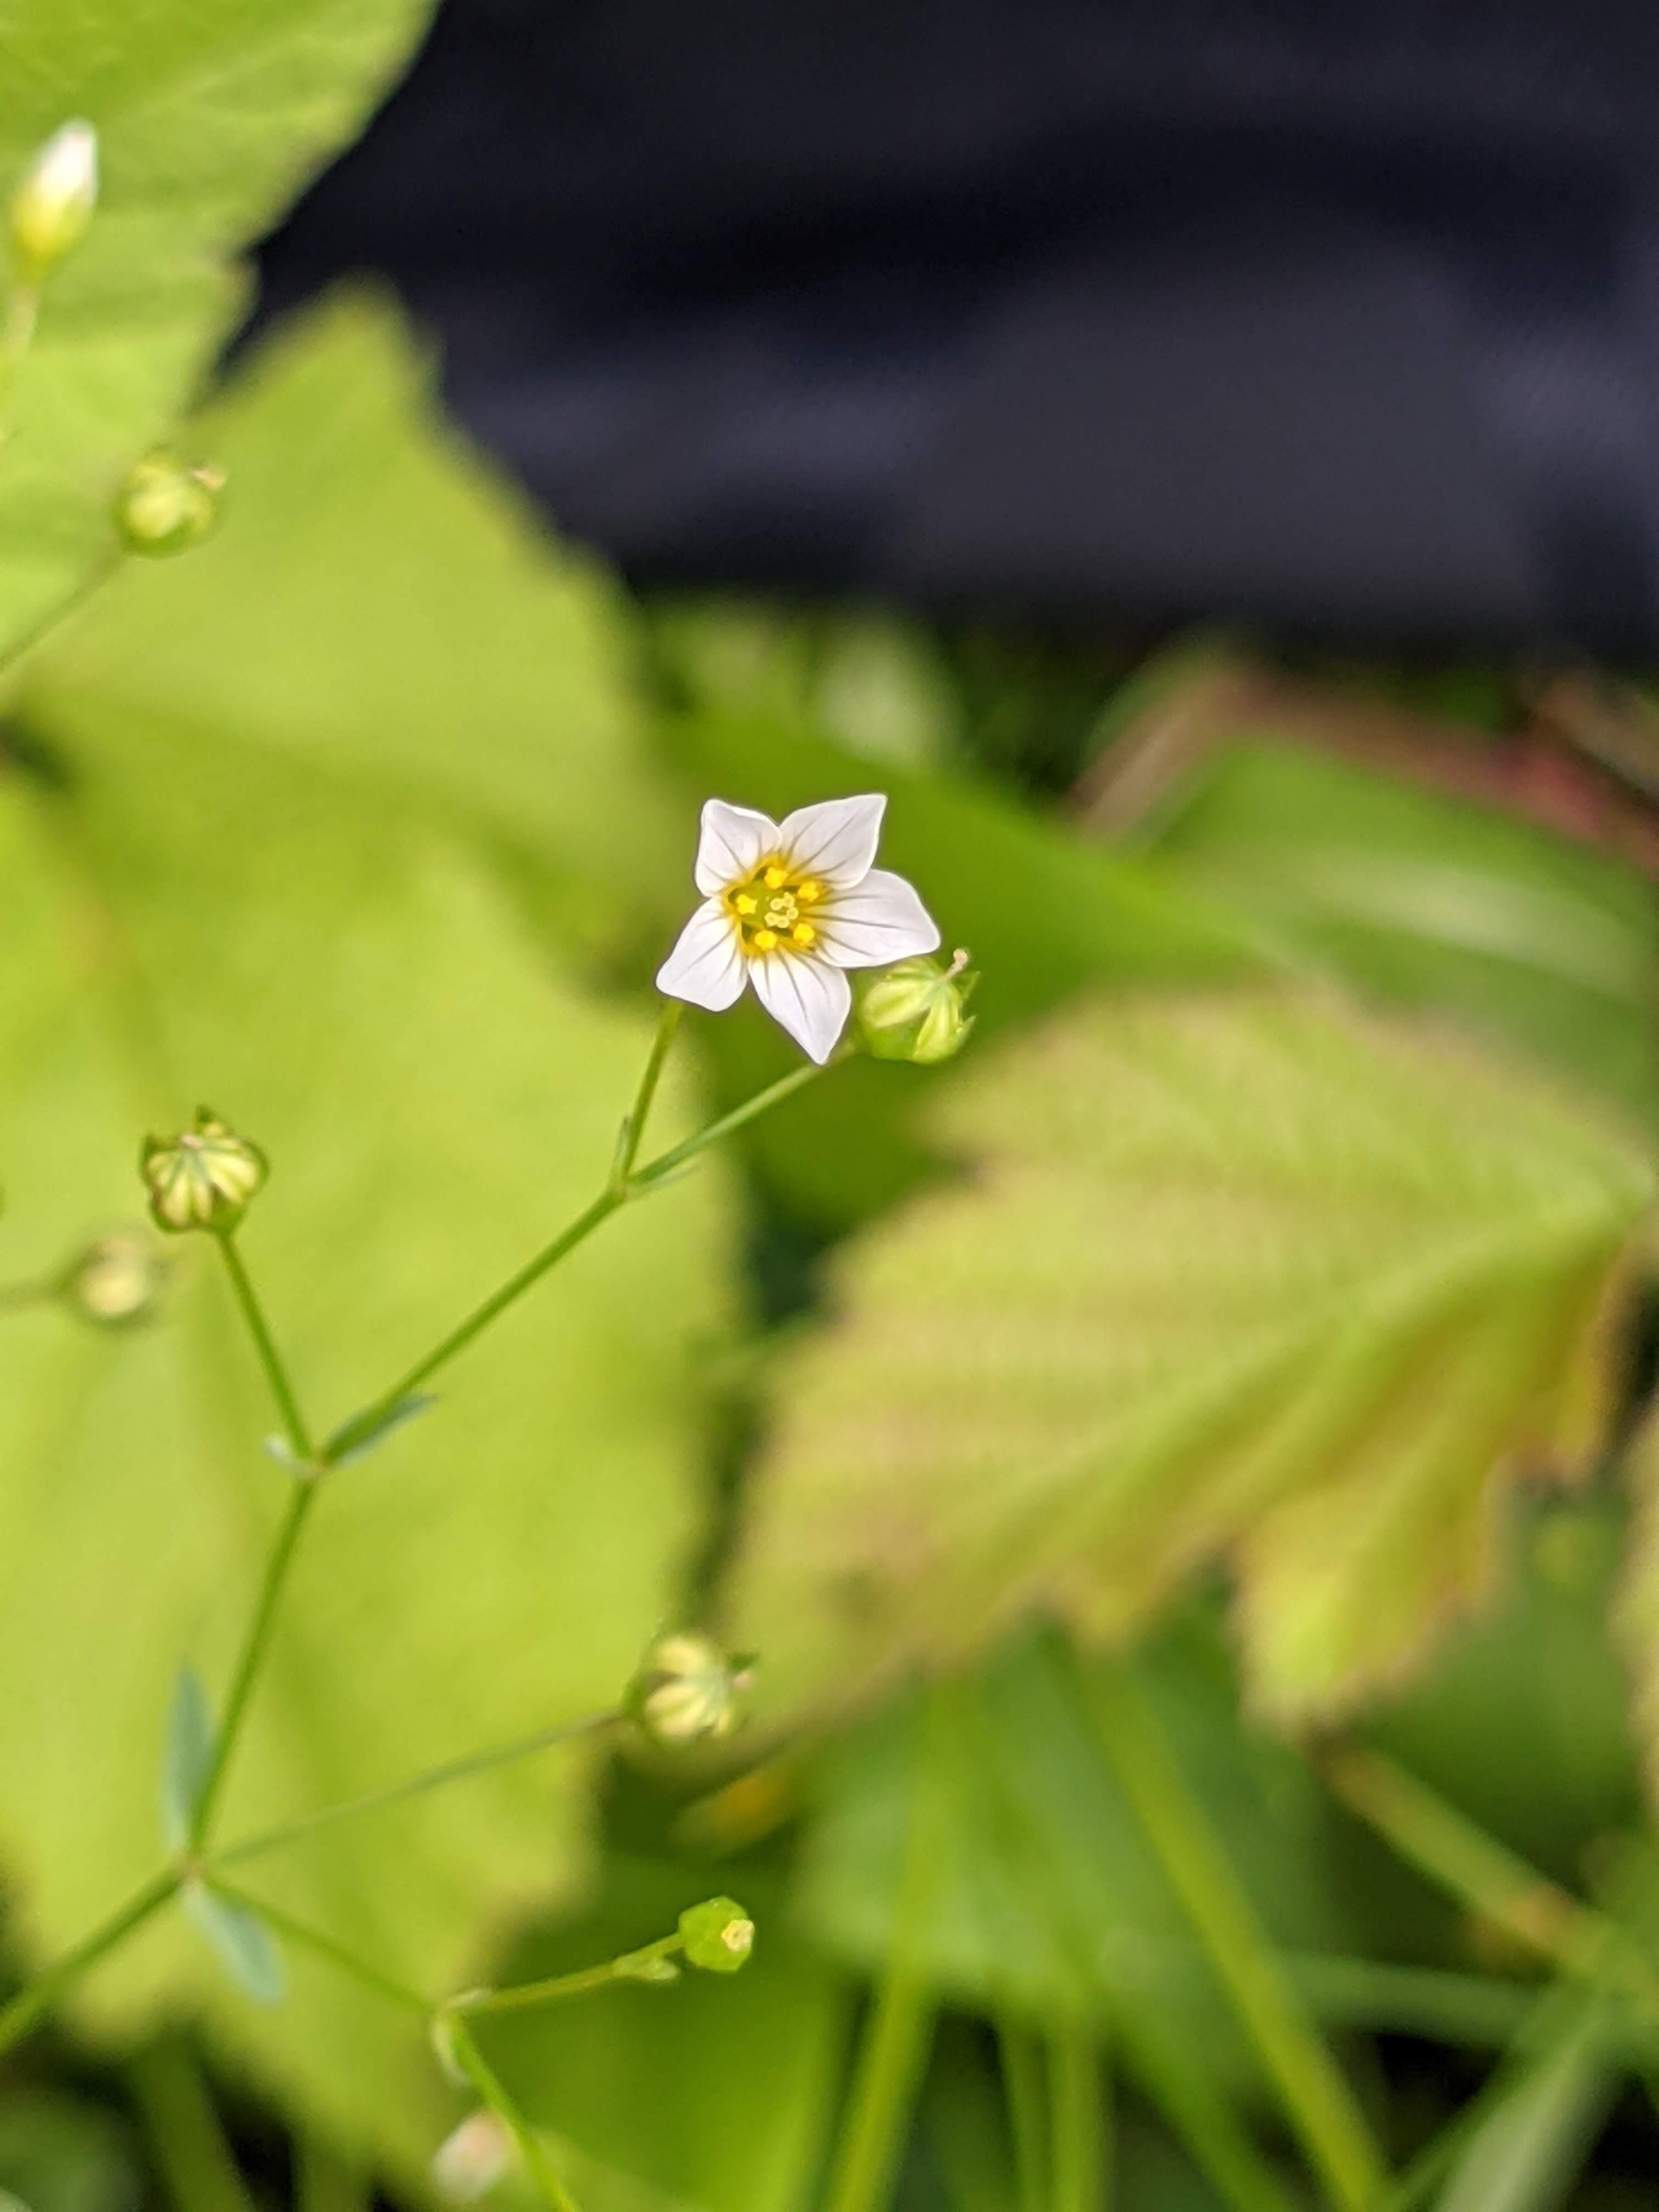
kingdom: Plantae
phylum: Tracheophyta
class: Magnoliopsida
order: Malpighiales
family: Linaceae
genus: Linum
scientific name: Linum catharticum
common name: Vild hør
